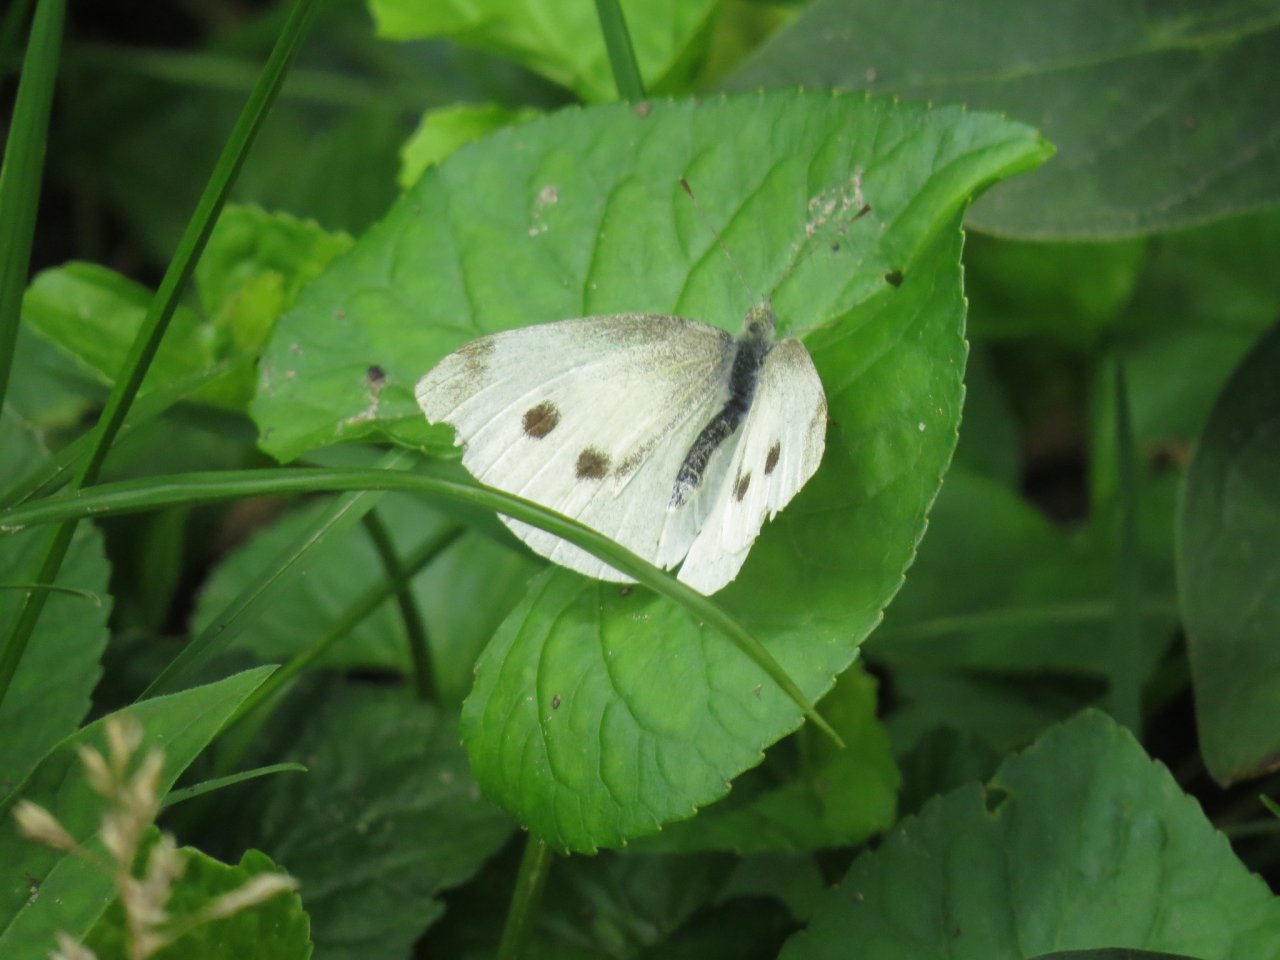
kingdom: Animalia
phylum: Arthropoda
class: Insecta
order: Lepidoptera
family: Pieridae
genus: Pieris
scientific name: Pieris rapae
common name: Cabbage White
